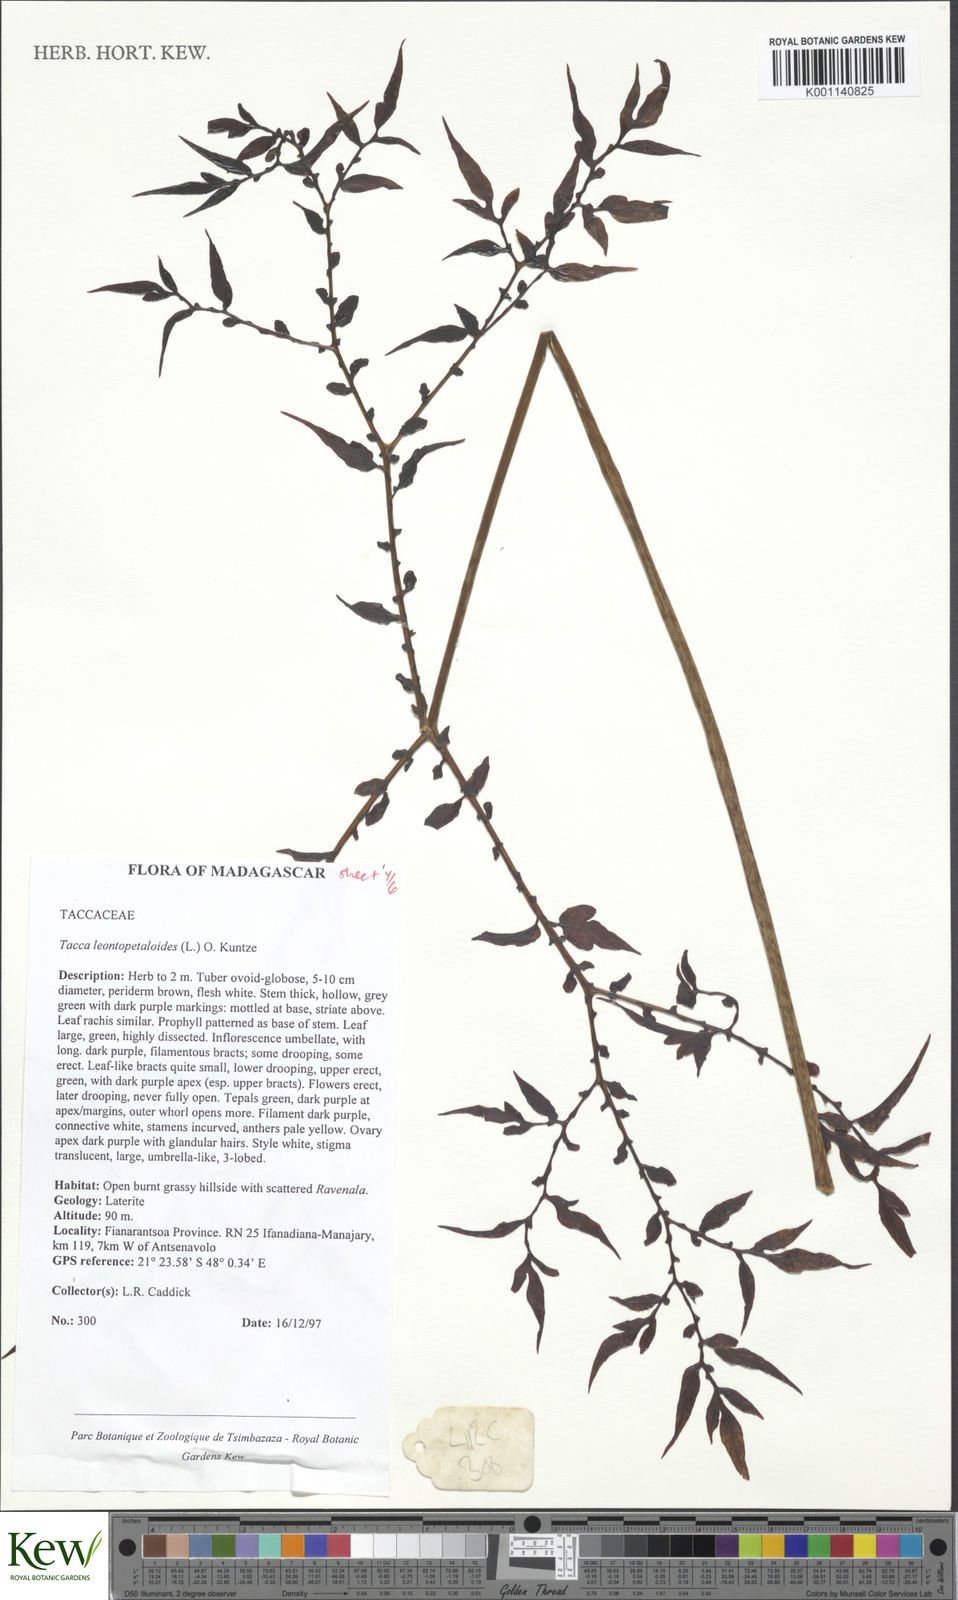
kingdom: Plantae
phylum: Tracheophyta
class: Liliopsida
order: Dioscoreales
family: Dioscoreaceae
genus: Tacca
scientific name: Tacca leontopetaloides
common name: Arrowroot
